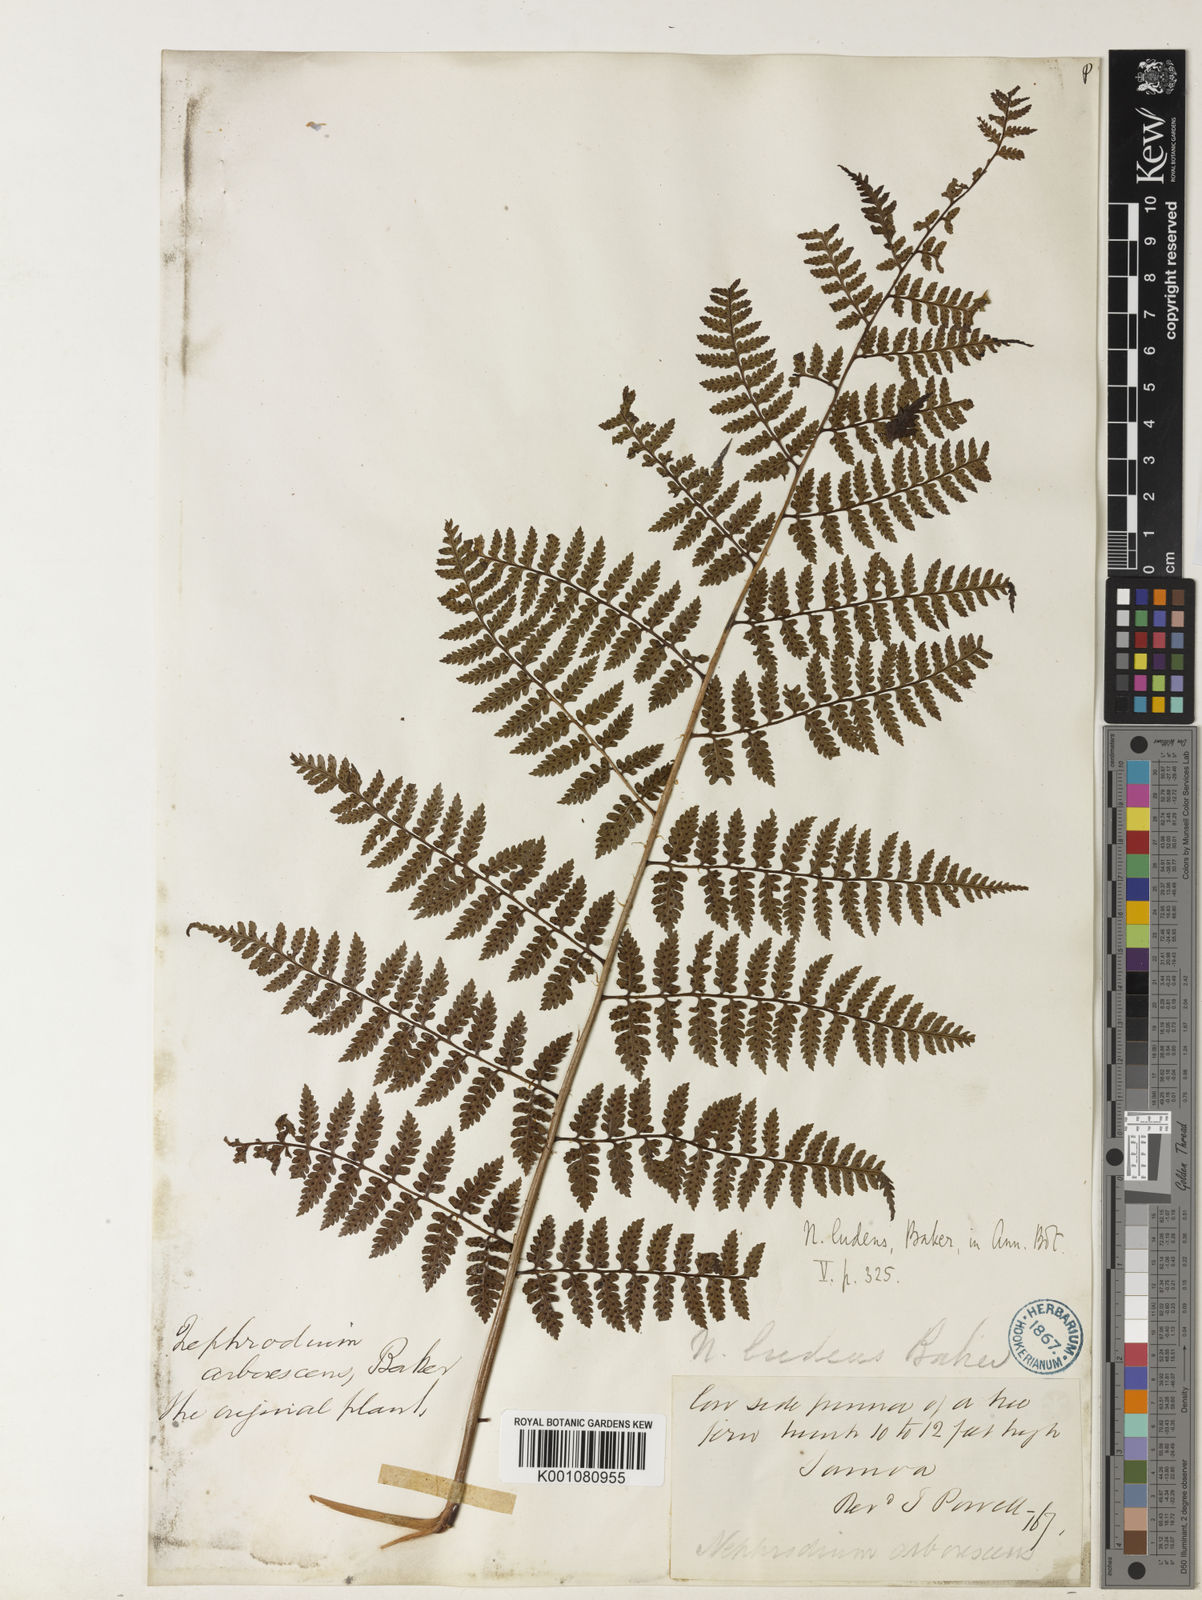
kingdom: Plantae
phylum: Tracheophyta
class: Polypodiopsida
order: Polypodiales
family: Dryopteridaceae
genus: Dryopteris
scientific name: Dryopteris arborescens
